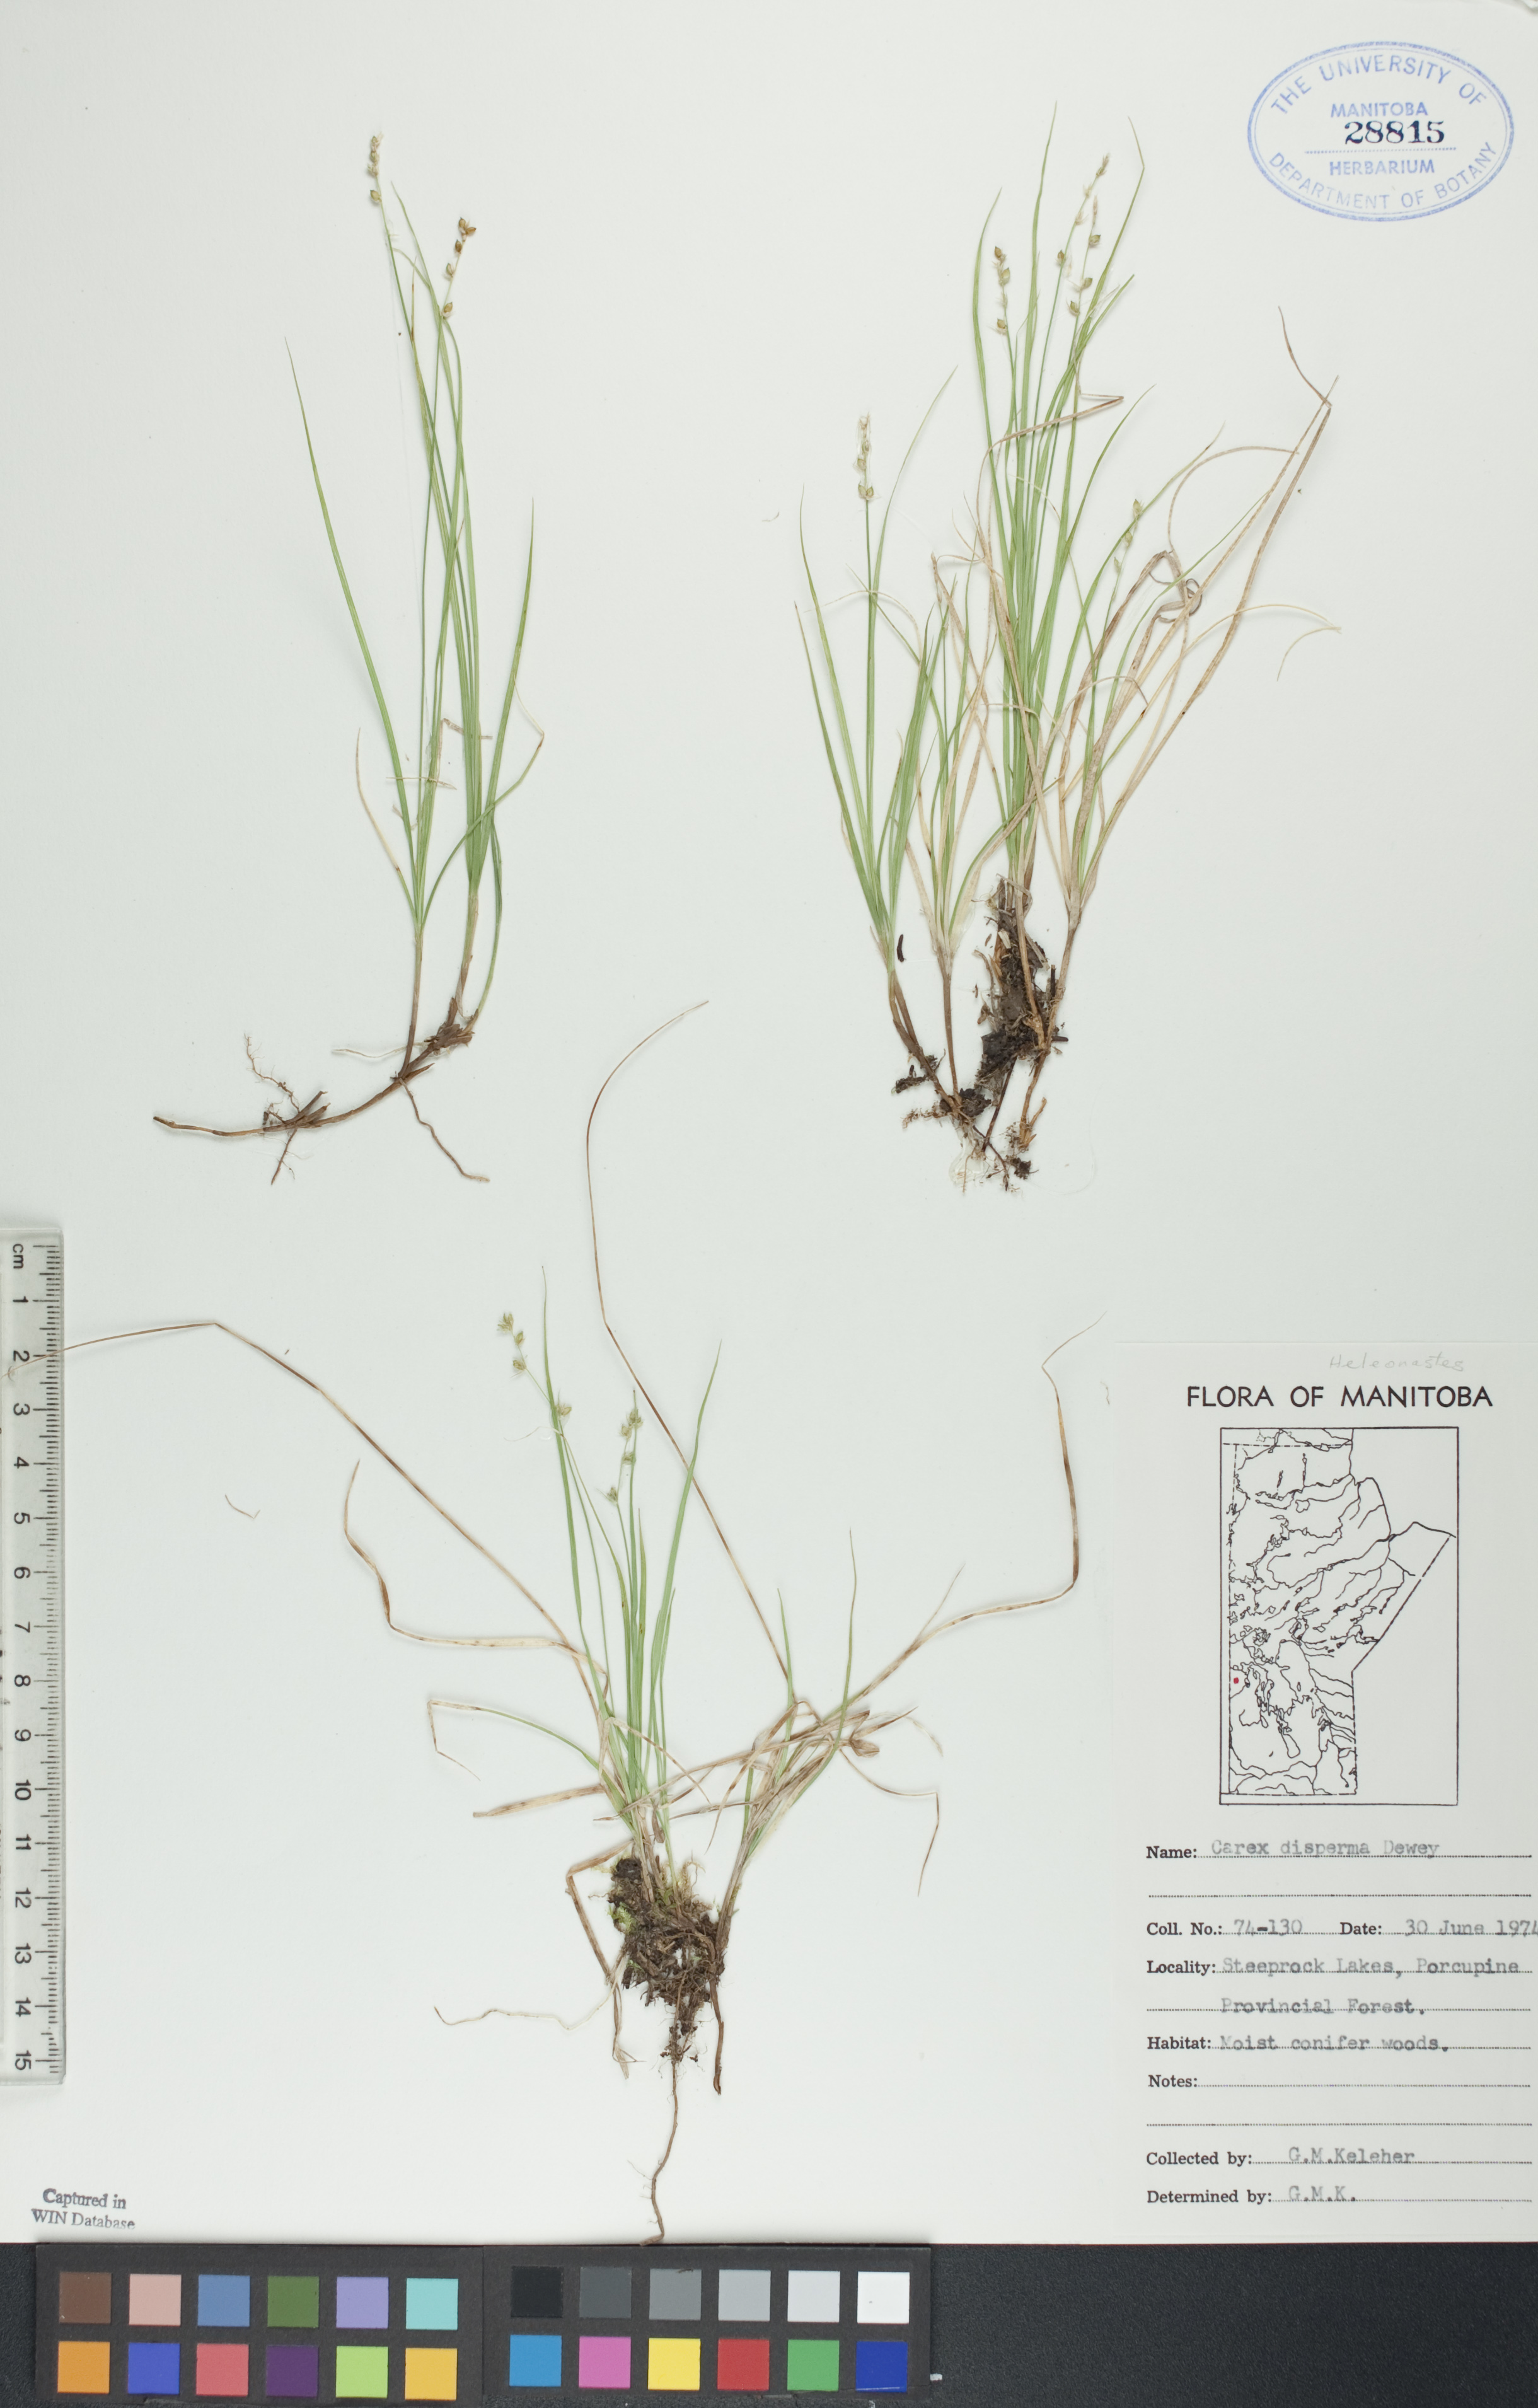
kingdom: Plantae
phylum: Tracheophyta
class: Liliopsida
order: Poales
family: Cyperaceae
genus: Carex
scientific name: Carex disperma
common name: Short-leaved sedge
